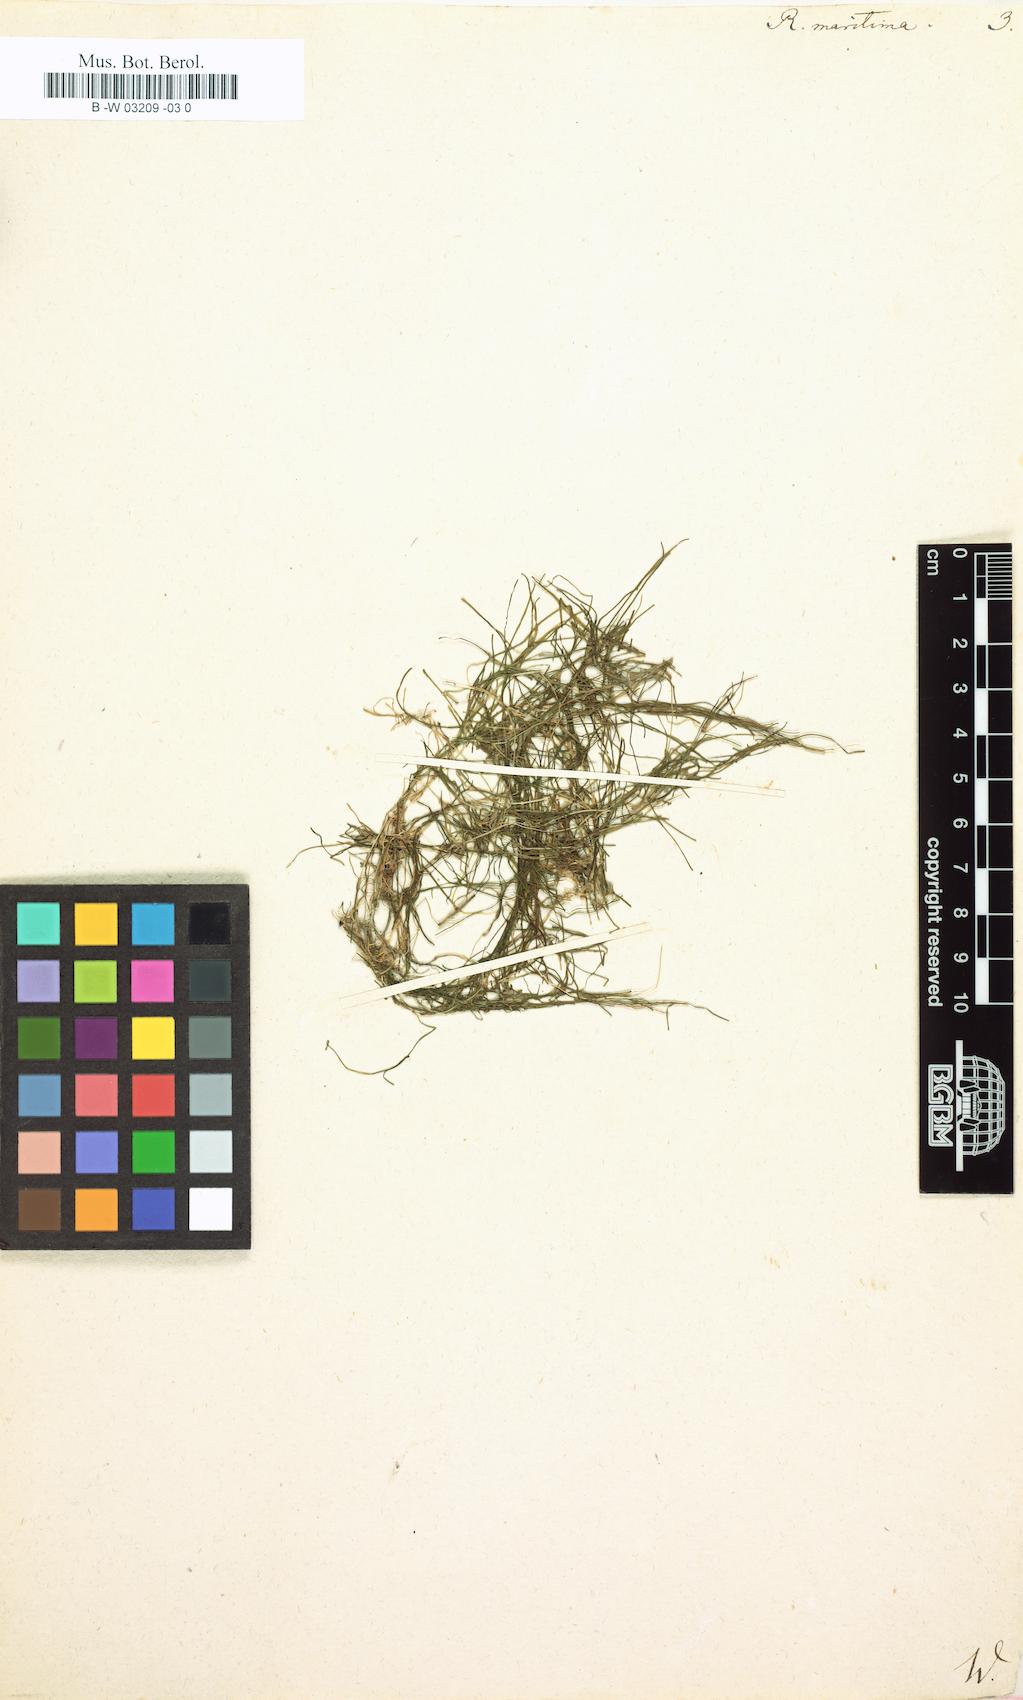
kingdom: Plantae
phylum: Tracheophyta
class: Liliopsida
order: Alismatales
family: Ruppiaceae
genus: Ruppia
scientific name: Ruppia maritima
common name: Beaked tasselweed
